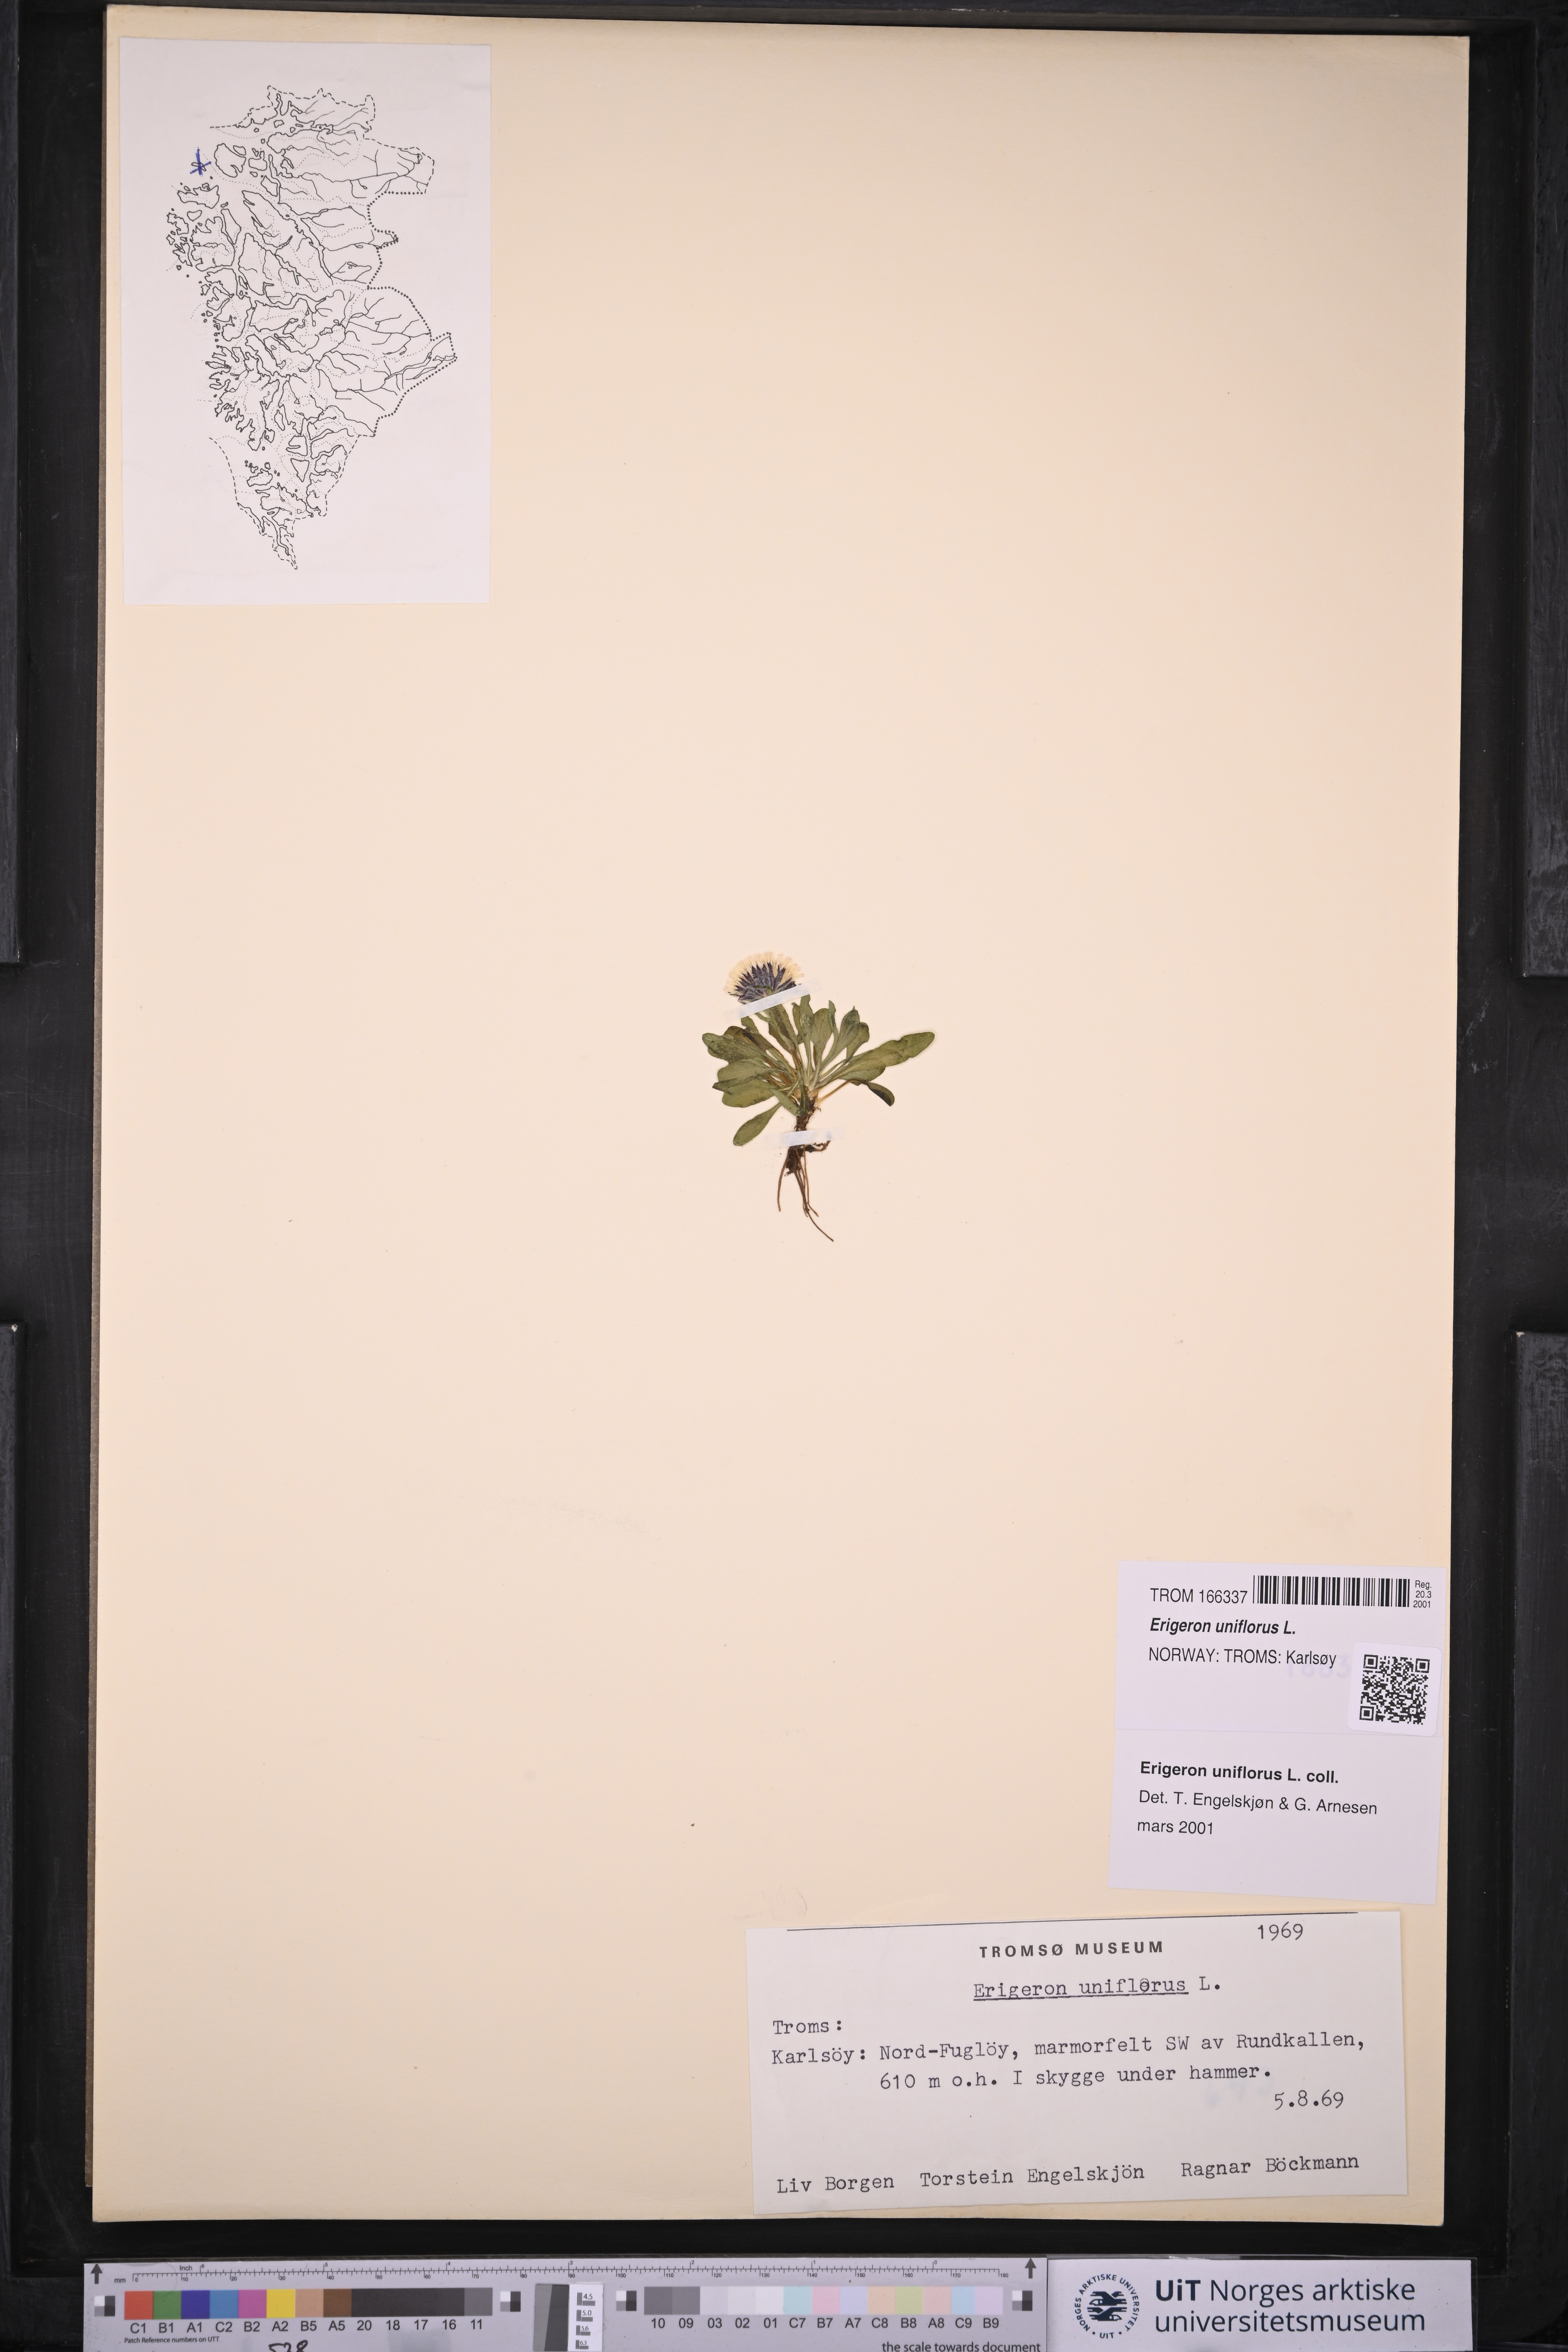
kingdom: Plantae
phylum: Tracheophyta
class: Magnoliopsida
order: Asterales
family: Asteraceae
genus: Erigeron
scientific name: Erigeron uniflorus
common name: Northern daisy
